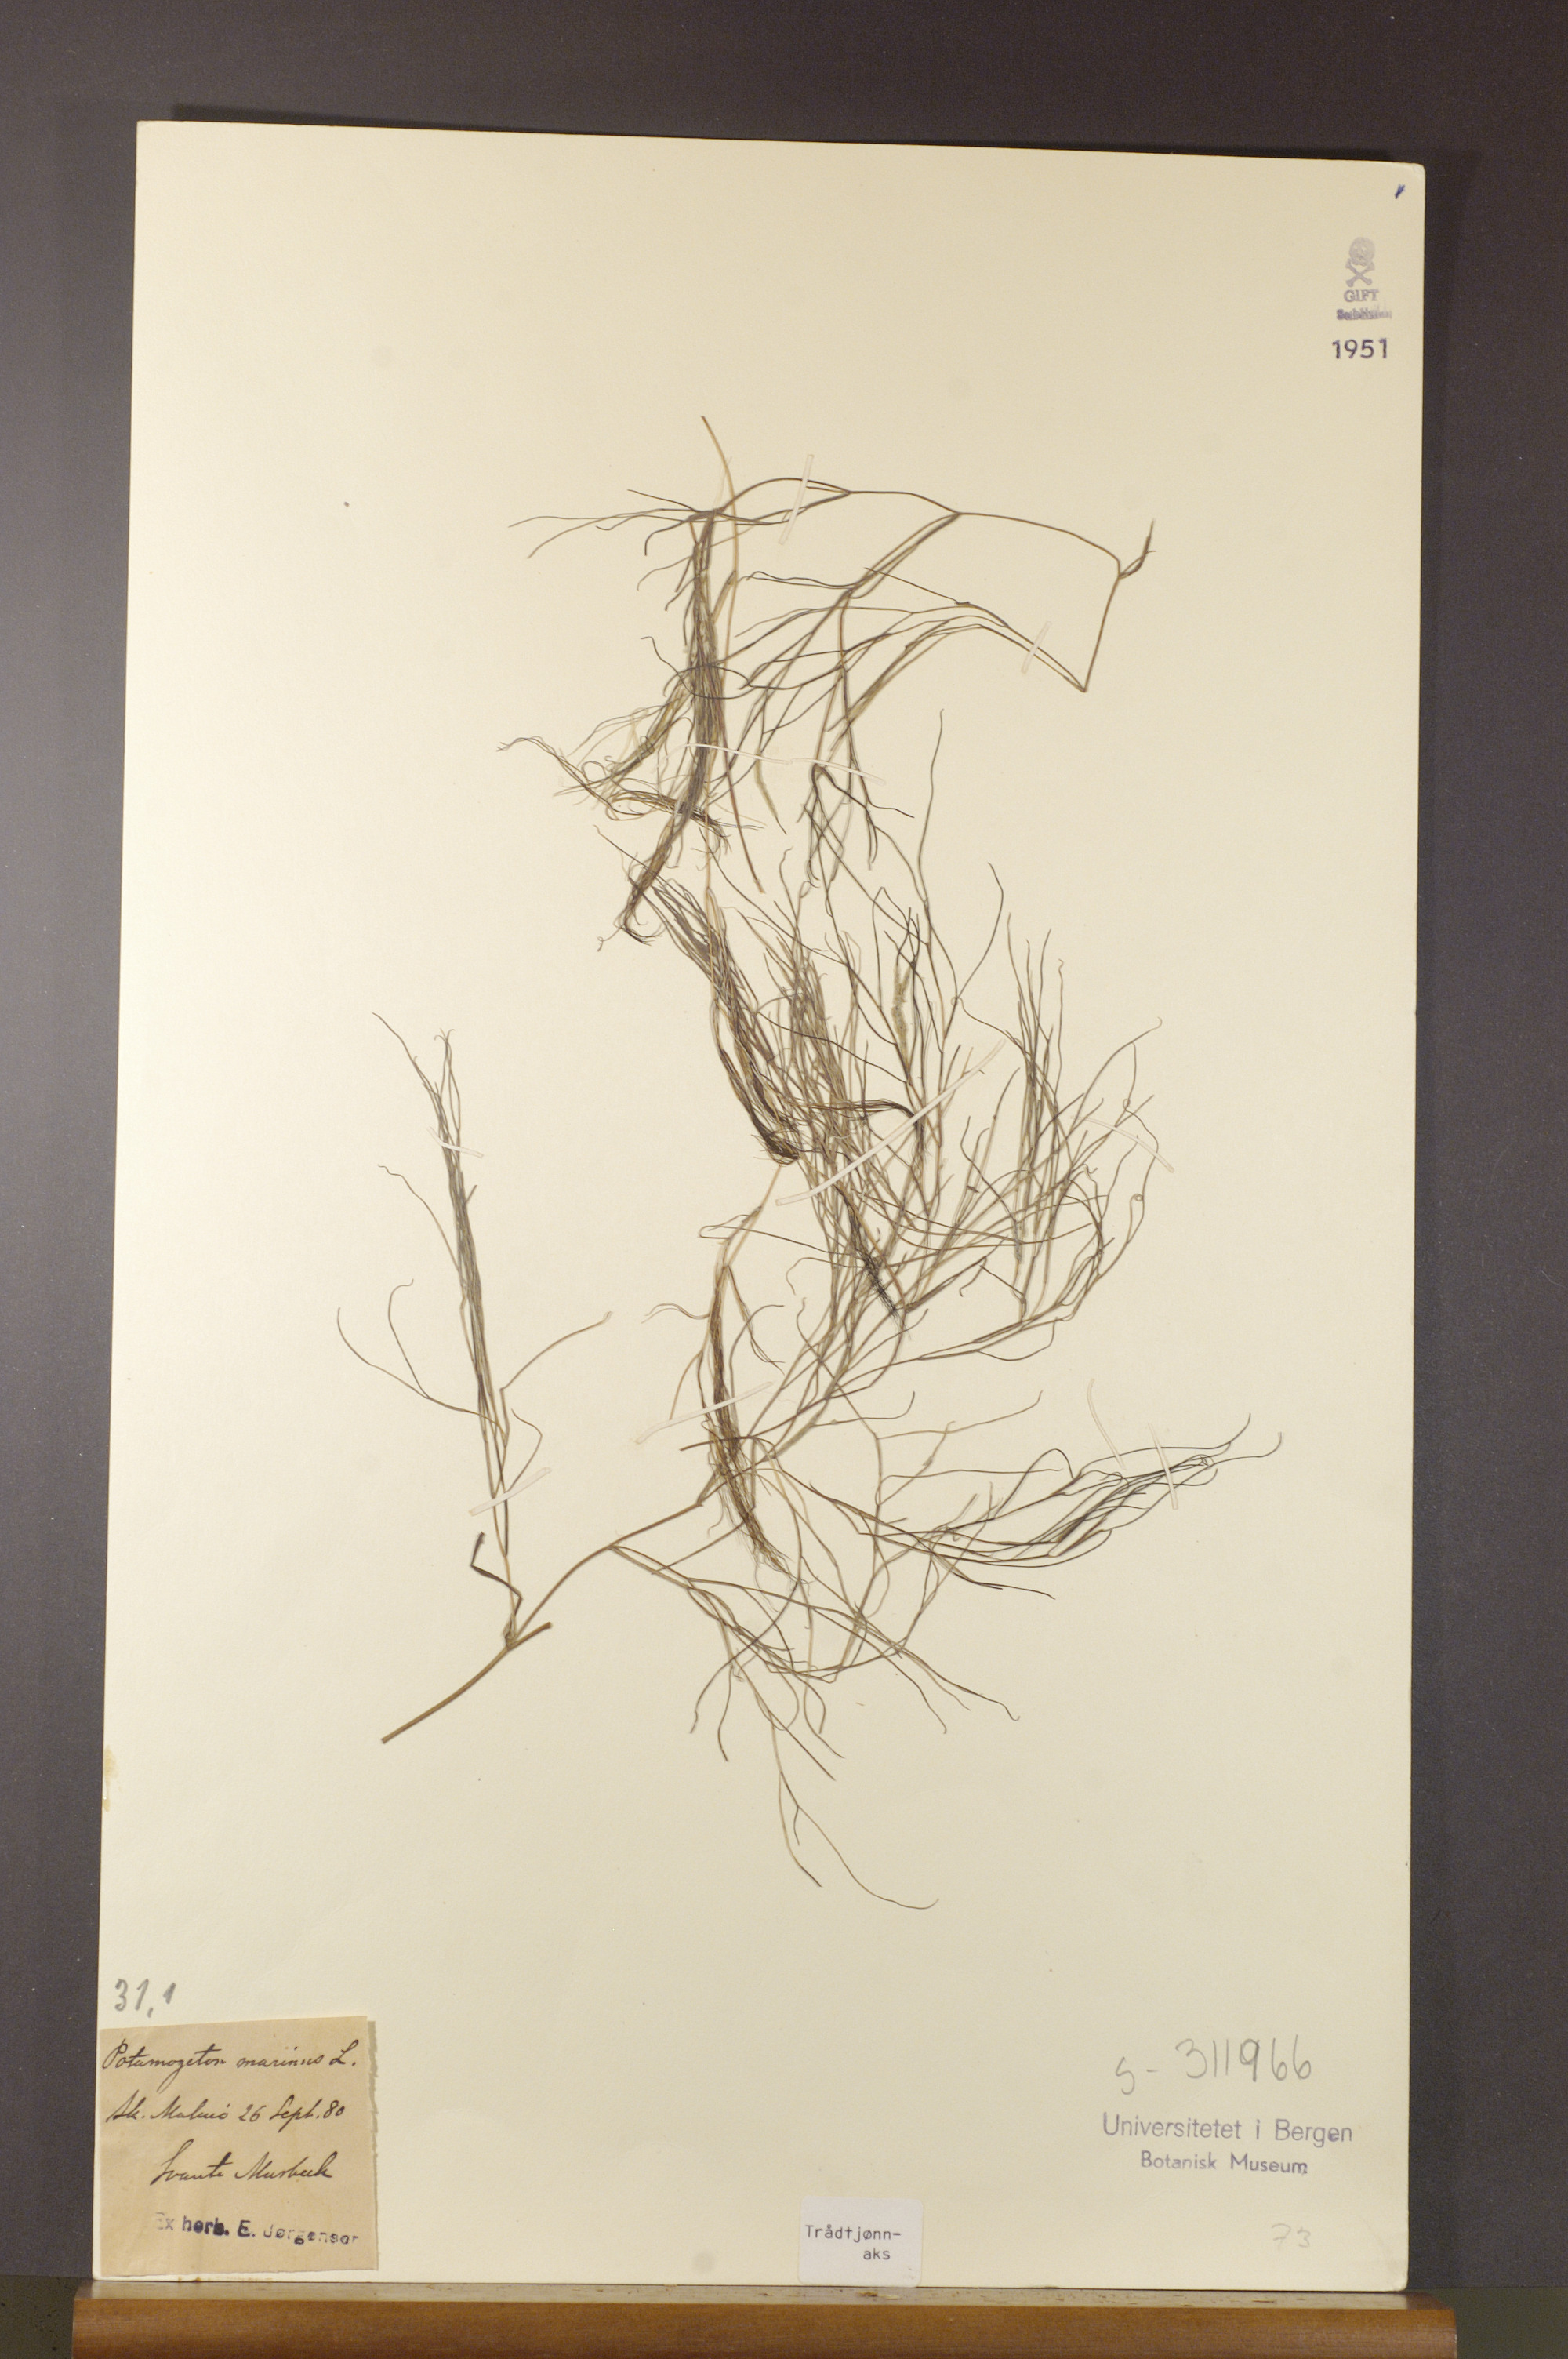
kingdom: Plantae
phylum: Tracheophyta
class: Liliopsida
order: Alismatales
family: Potamogetonaceae
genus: Stuckenia
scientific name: Stuckenia filiformis
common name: Alpine thread-leaved pondweed
